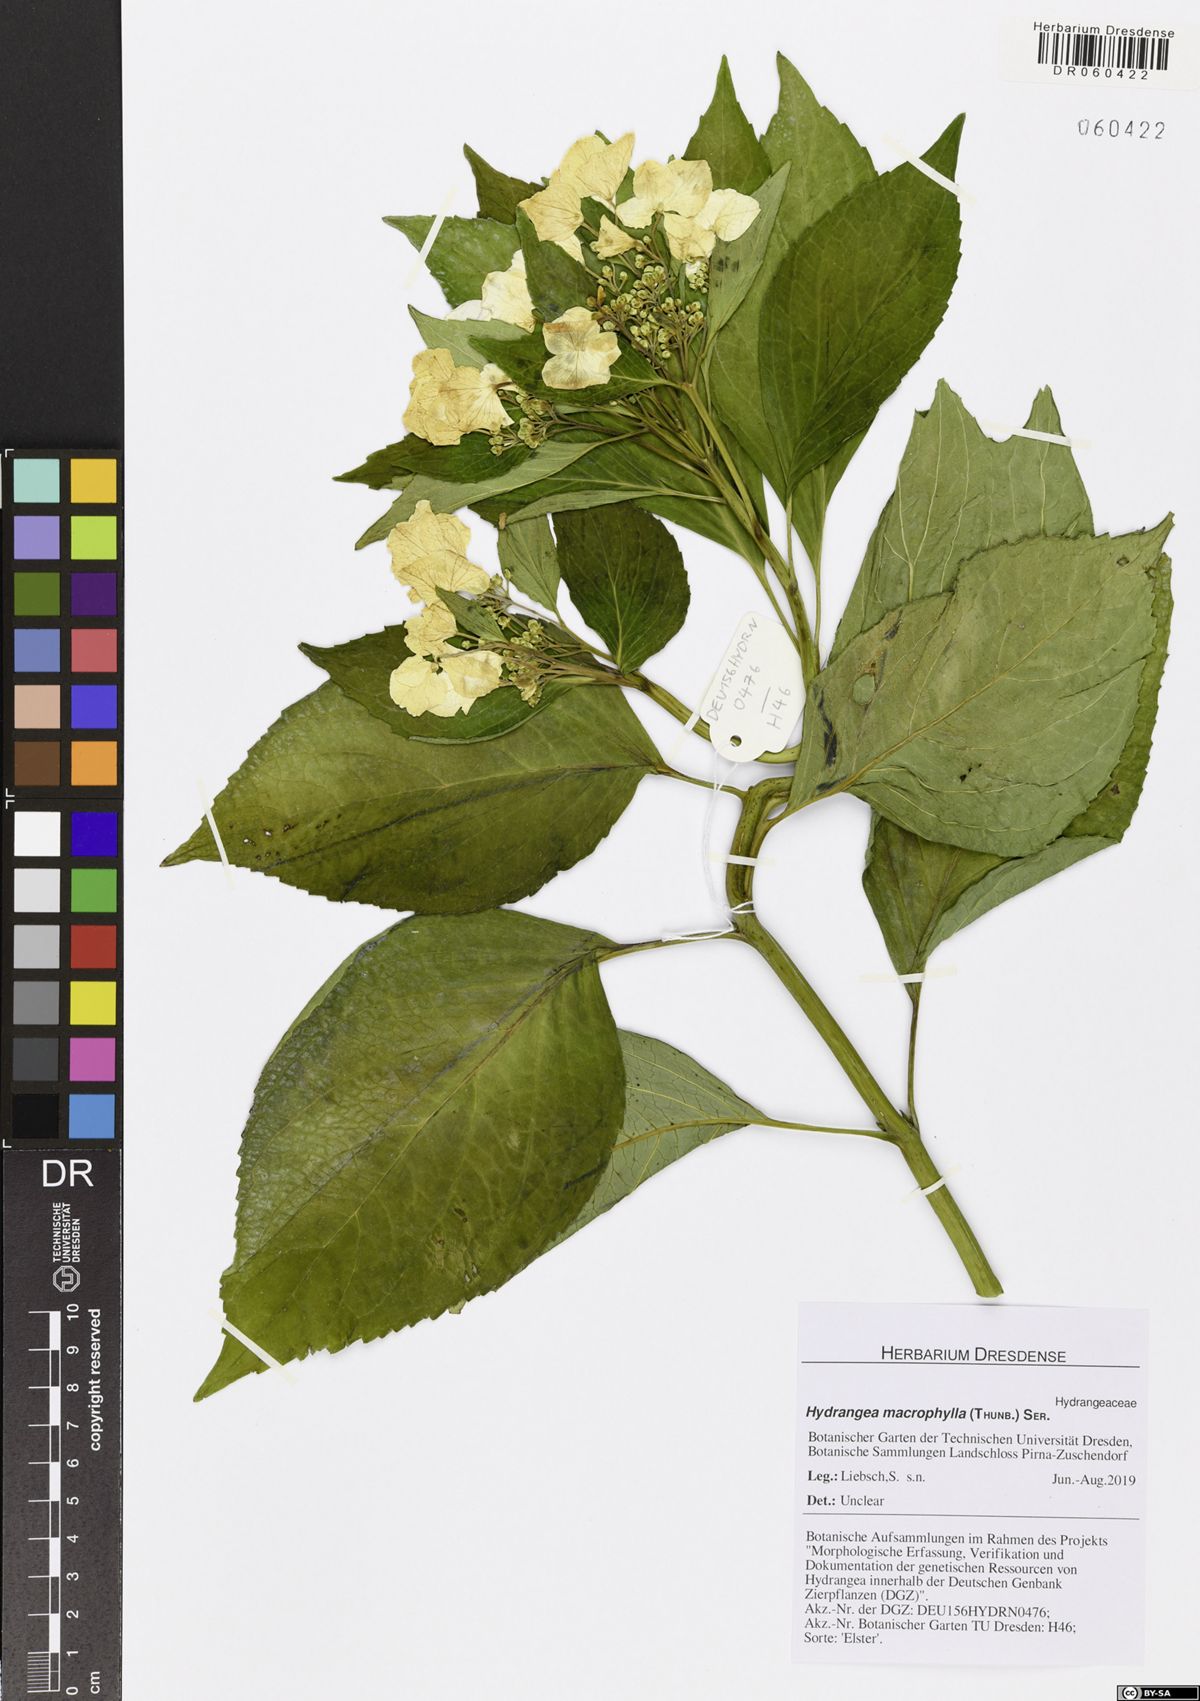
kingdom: Plantae
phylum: Tracheophyta
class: Magnoliopsida
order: Cornales
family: Hydrangeaceae
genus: Hydrangea
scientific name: Hydrangea macrophylla
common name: Hydrangea
